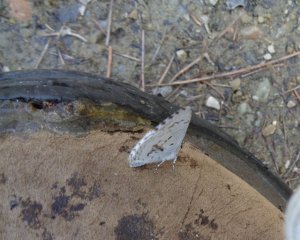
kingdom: Animalia
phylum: Arthropoda
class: Insecta
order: Lepidoptera
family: Lycaenidae
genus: Celastrina
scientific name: Celastrina lucia
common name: Northern Spring Azure
